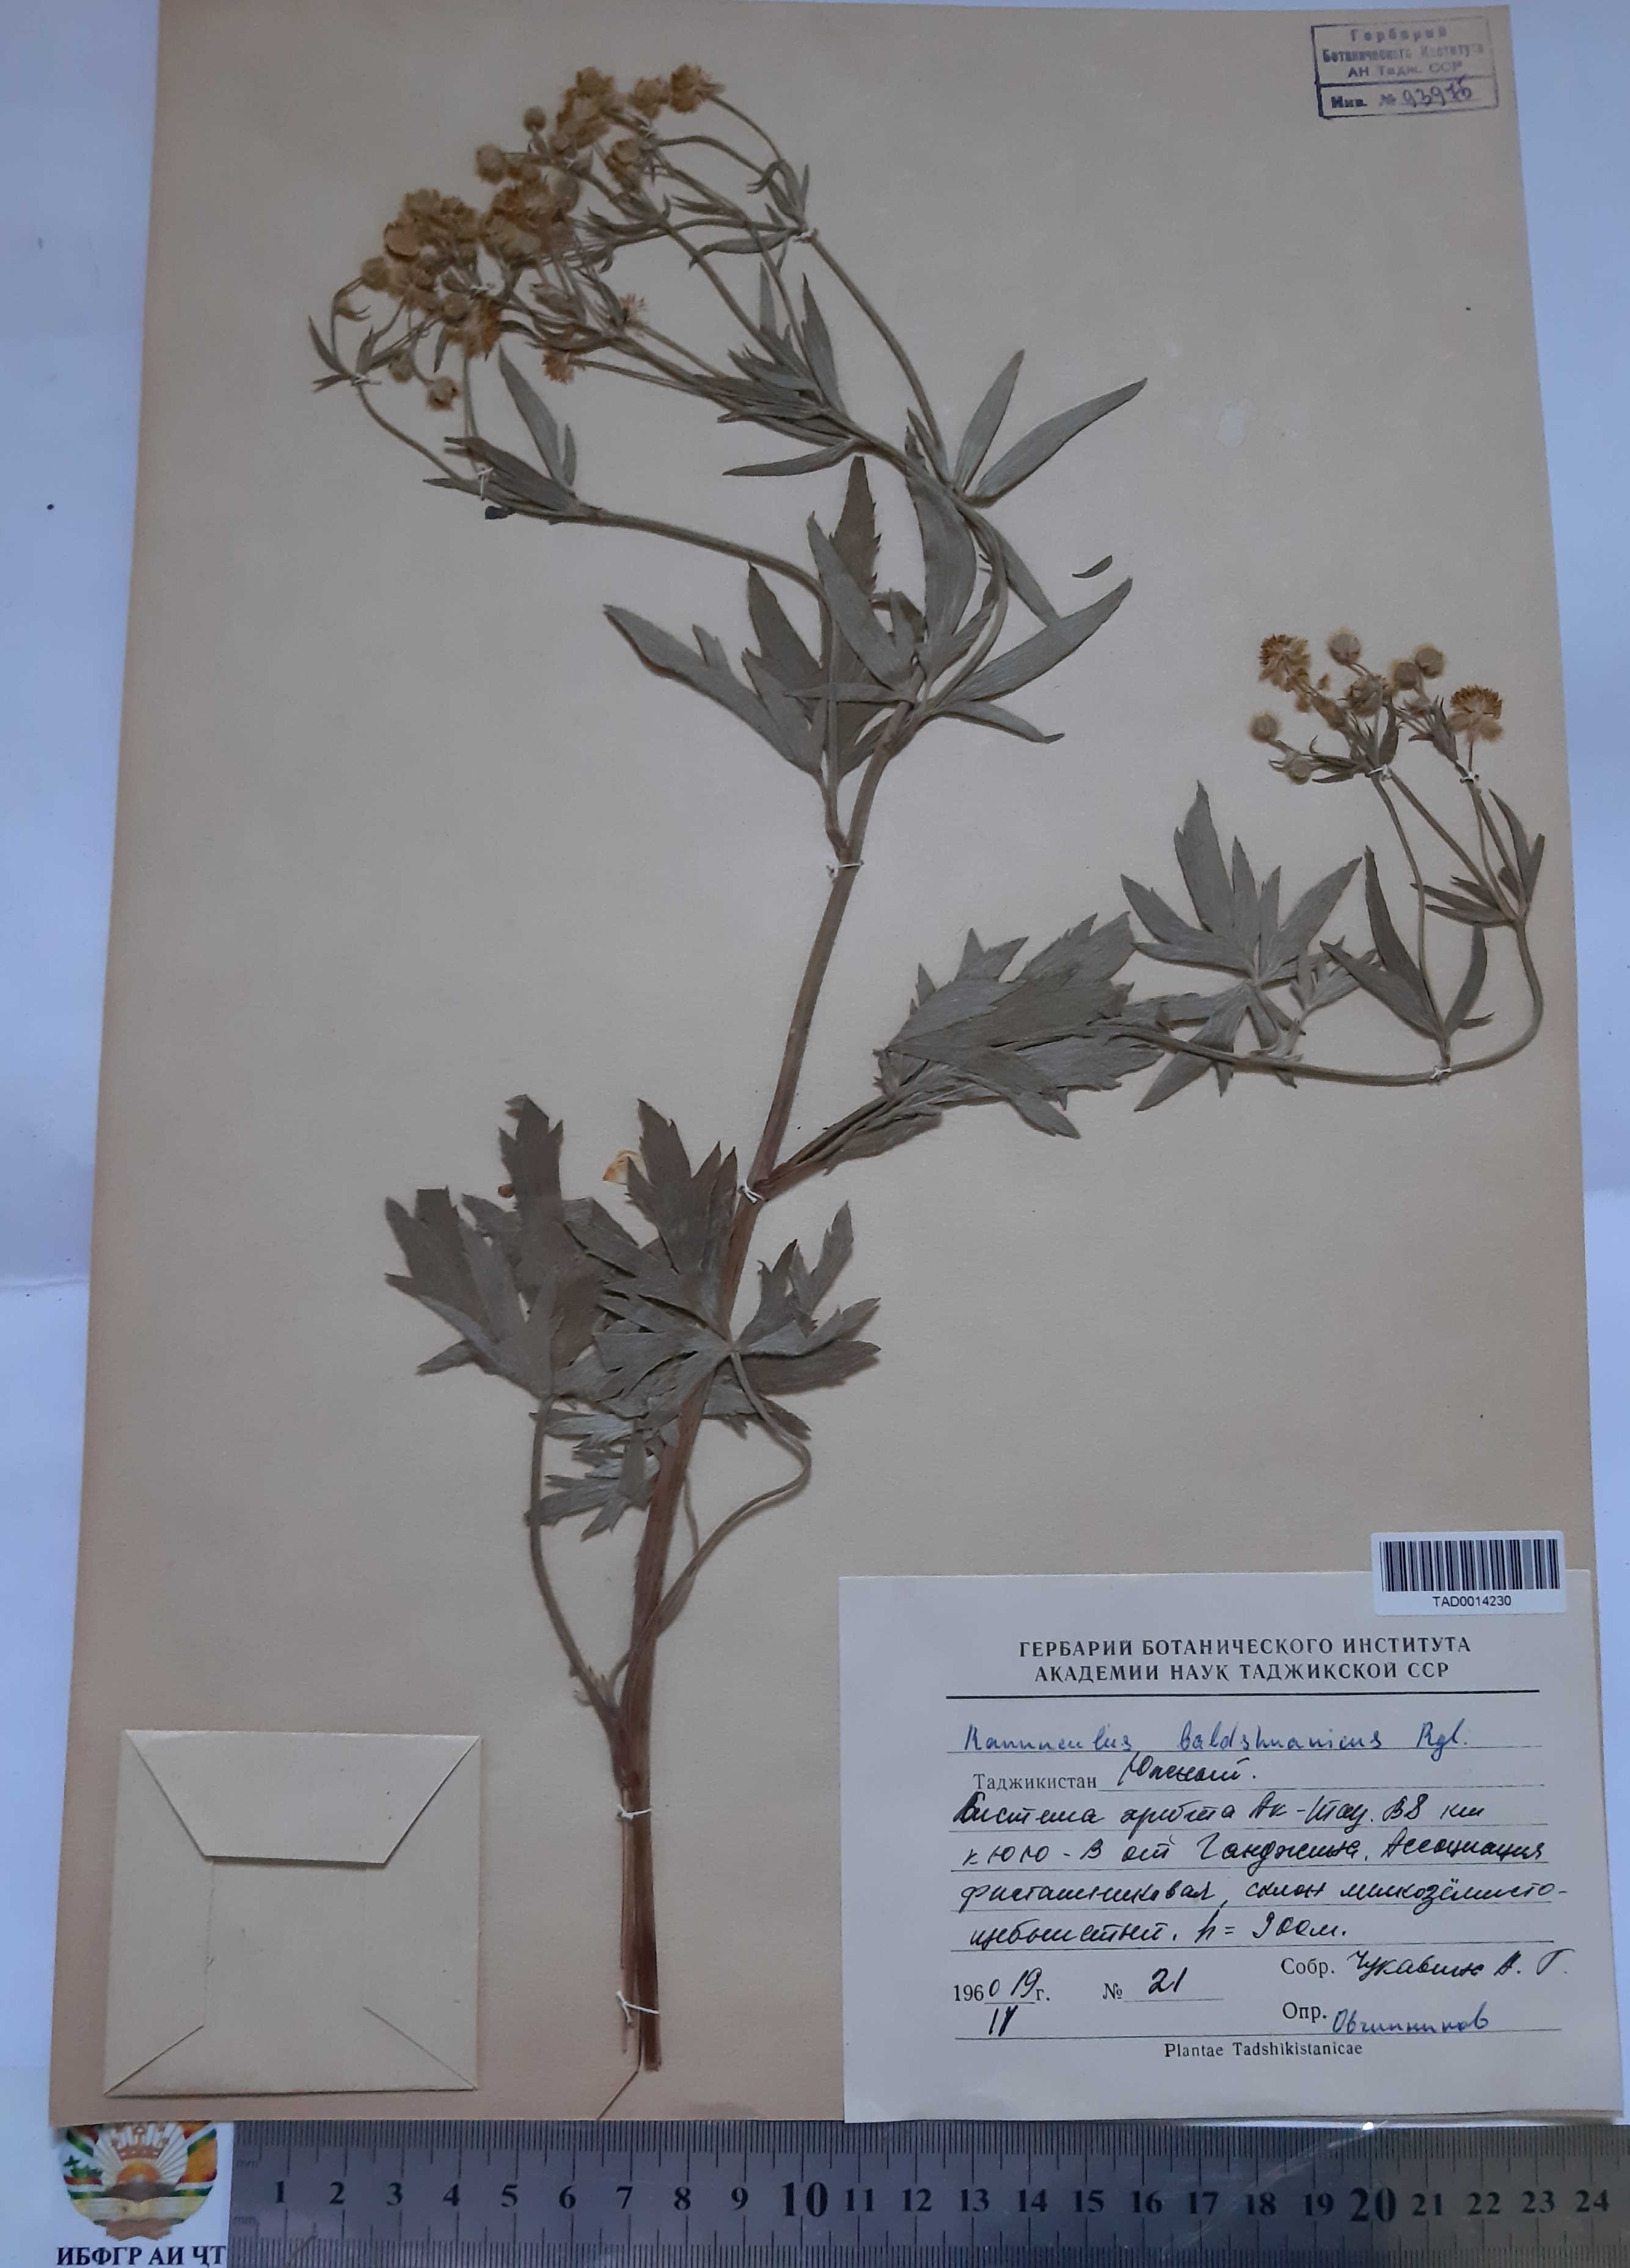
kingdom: Plantae
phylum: Tracheophyta
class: Magnoliopsida
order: Ranunculales
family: Ranunculaceae
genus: Ranunculus
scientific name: Ranunculus baldshuanicus
